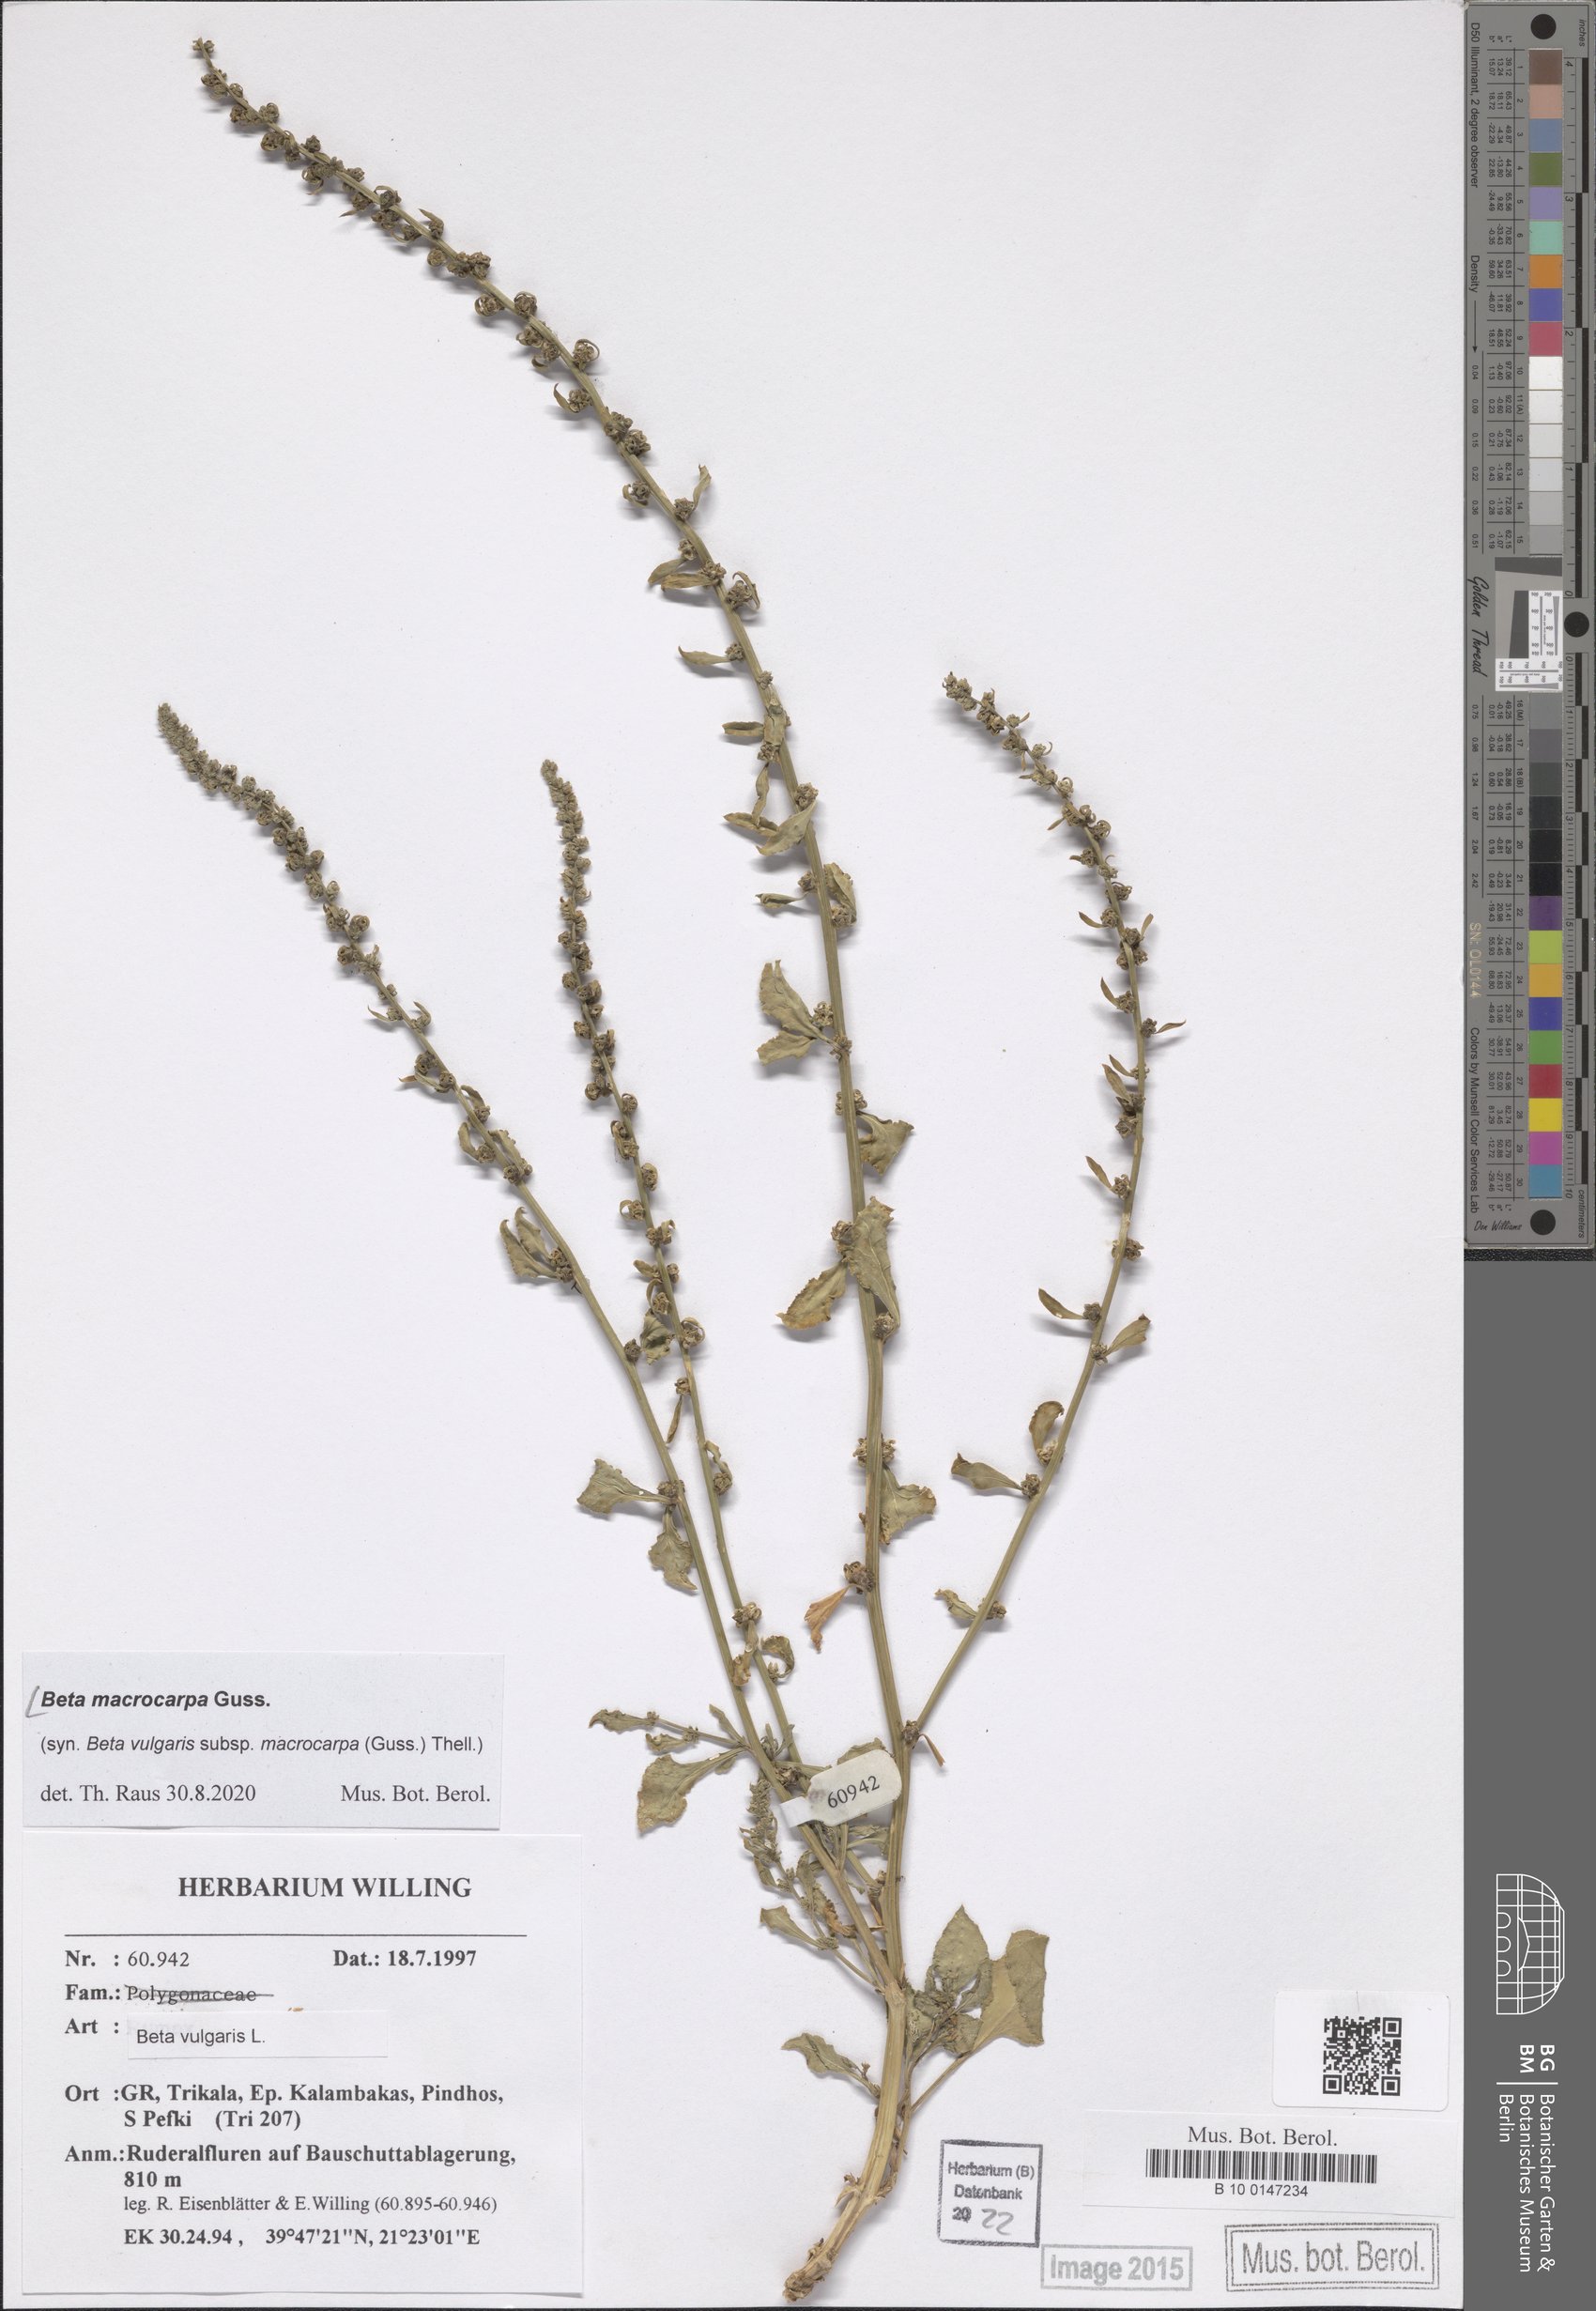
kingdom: Plantae
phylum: Tracheophyta
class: Magnoliopsida
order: Caryophyllales
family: Amaranthaceae
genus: Beta
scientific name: Beta macrocarpa
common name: Beet
